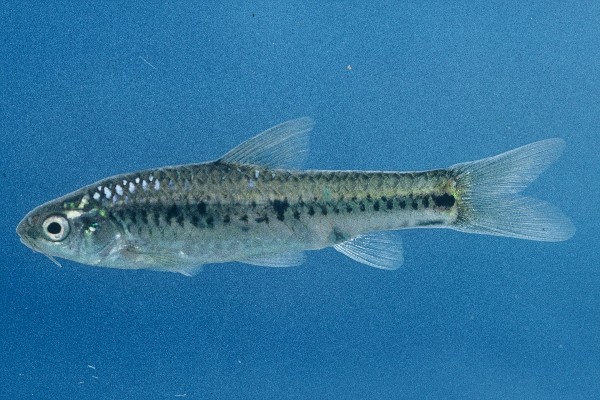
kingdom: Animalia
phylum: Chordata
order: Cypriniformes
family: Cyprinidae
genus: Enteromius
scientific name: Enteromius atkinsoni
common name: Dash-dot barb
